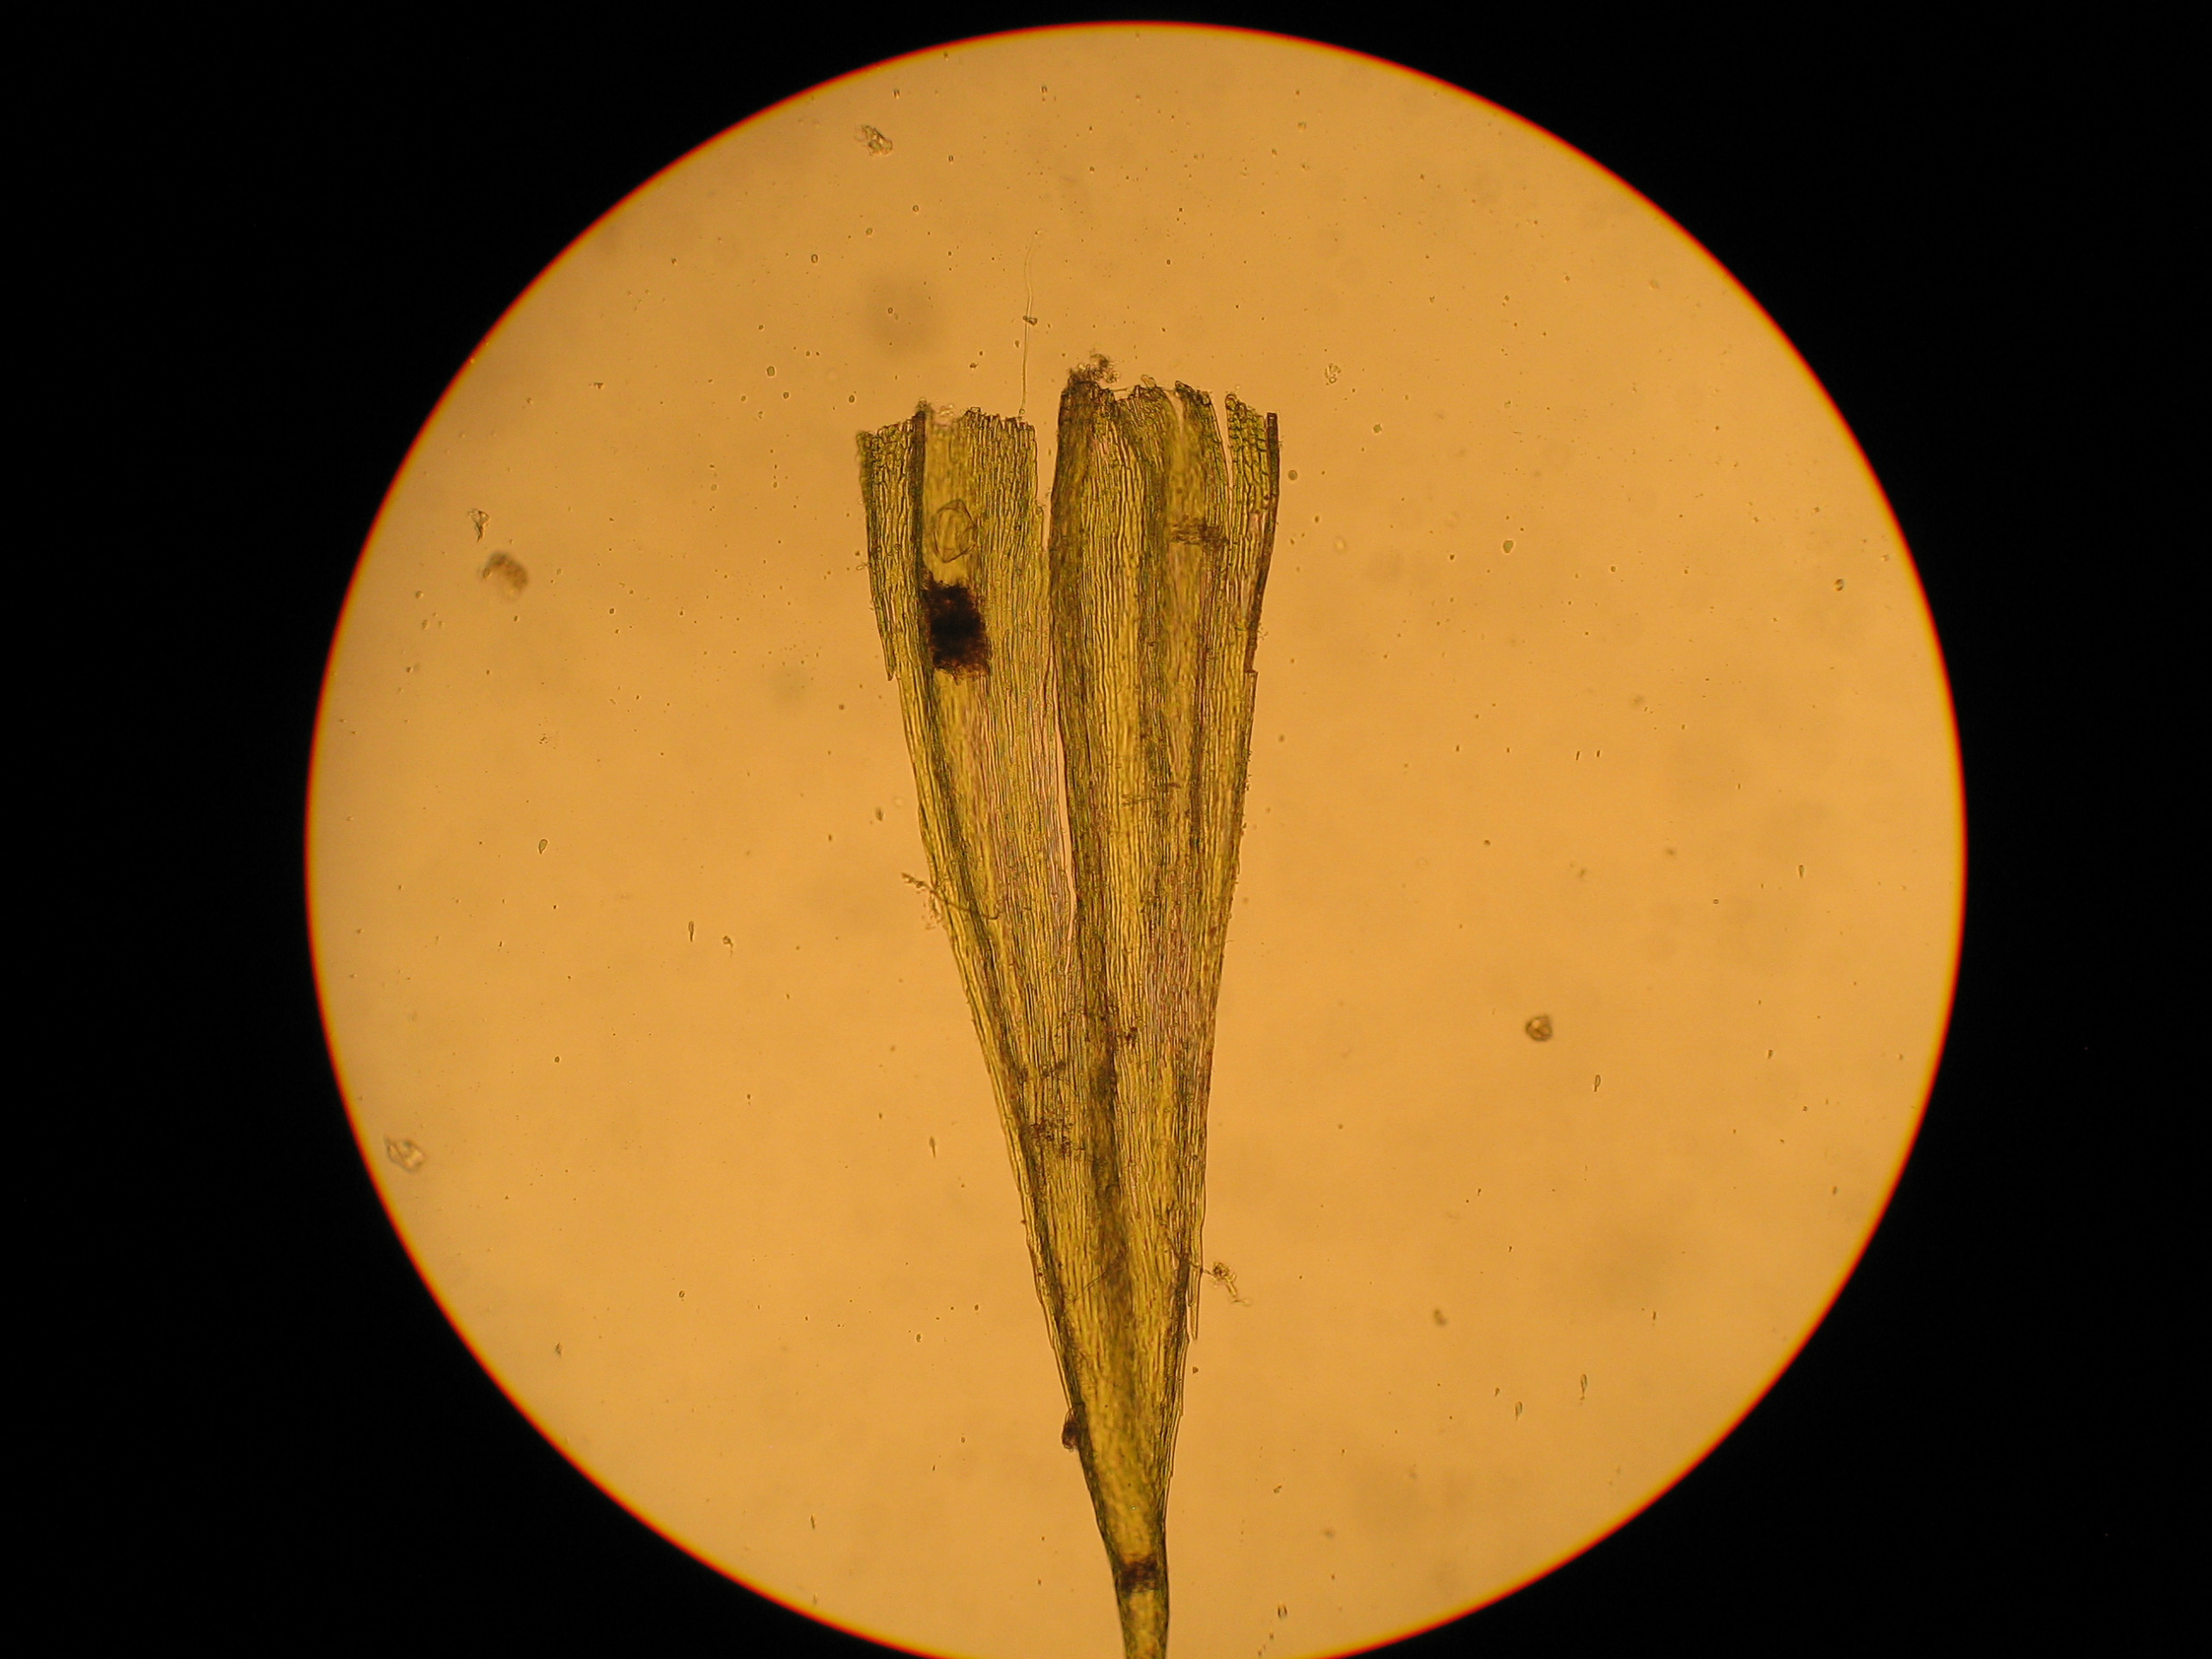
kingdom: Plantae
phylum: Bryophyta
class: Bryopsida
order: Hypnales
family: Brachytheciaceae
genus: Homalothecium
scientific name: Homalothecium sericeum
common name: Krybende silkemos
